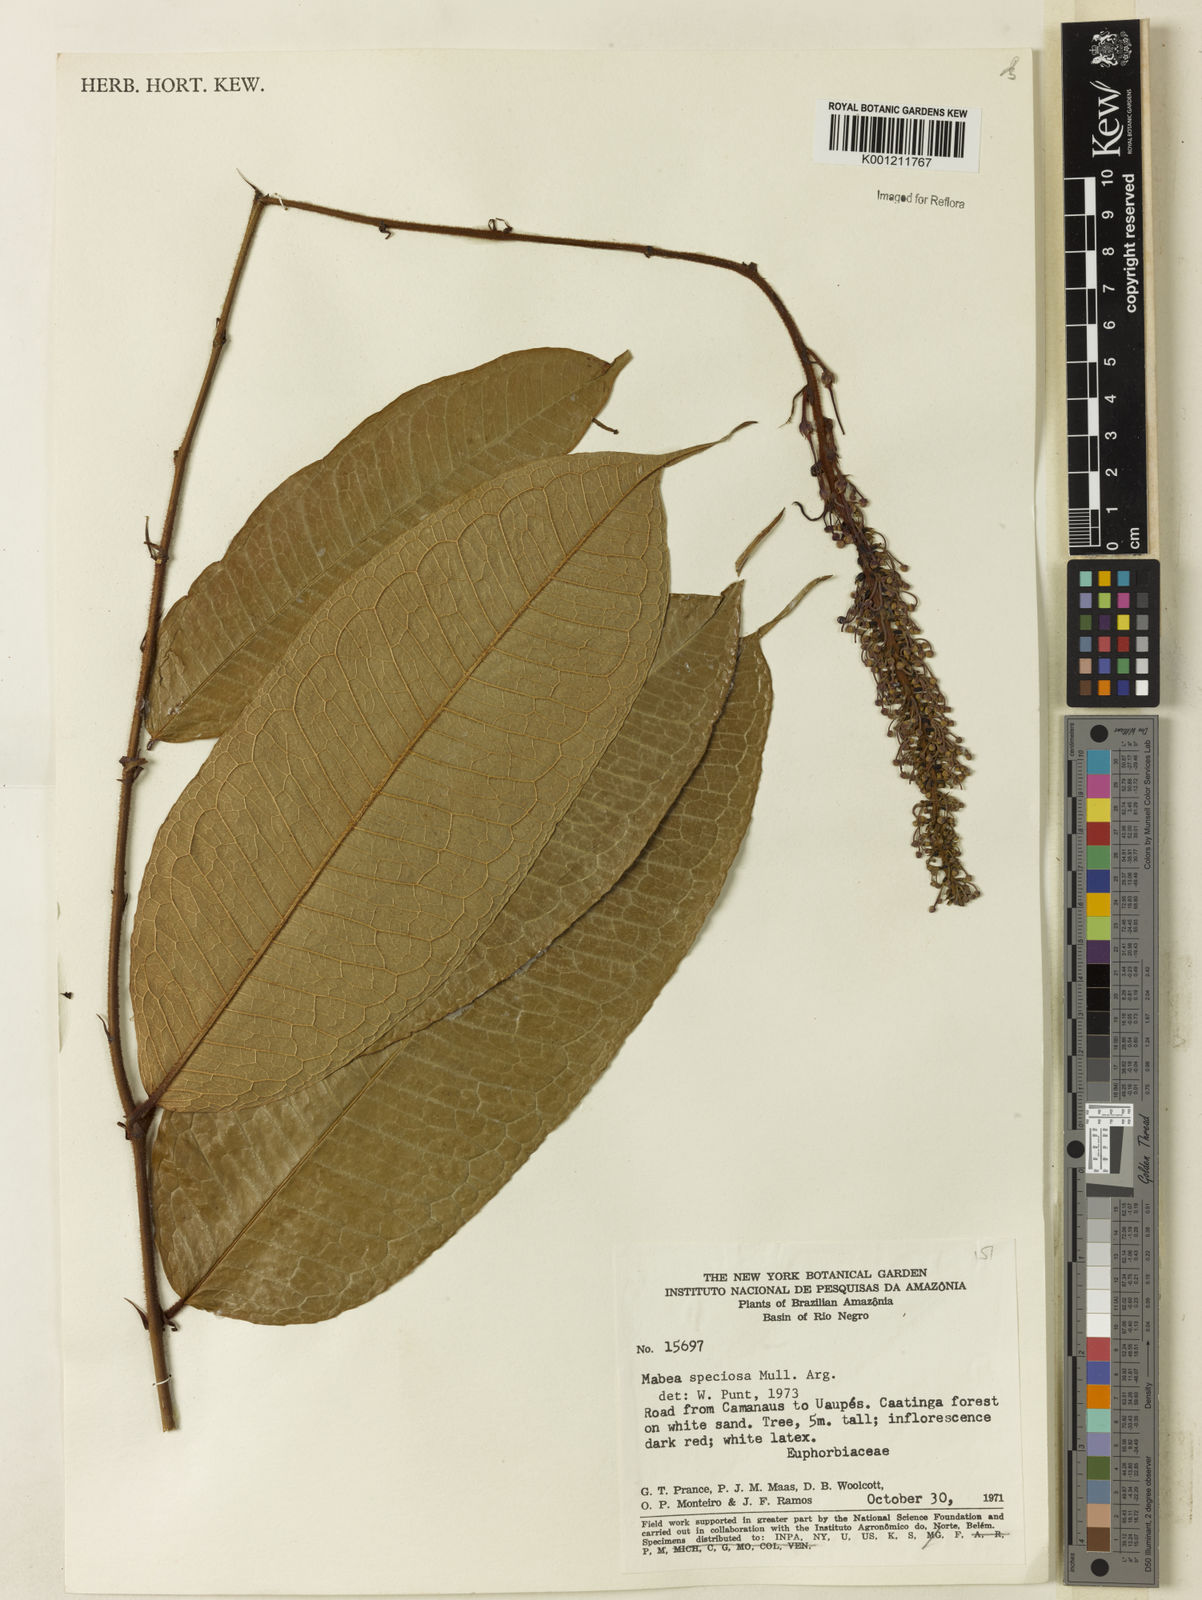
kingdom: Plantae
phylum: Tracheophyta
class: Magnoliopsida
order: Malpighiales
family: Euphorbiaceae
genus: Mabea
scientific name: Mabea
